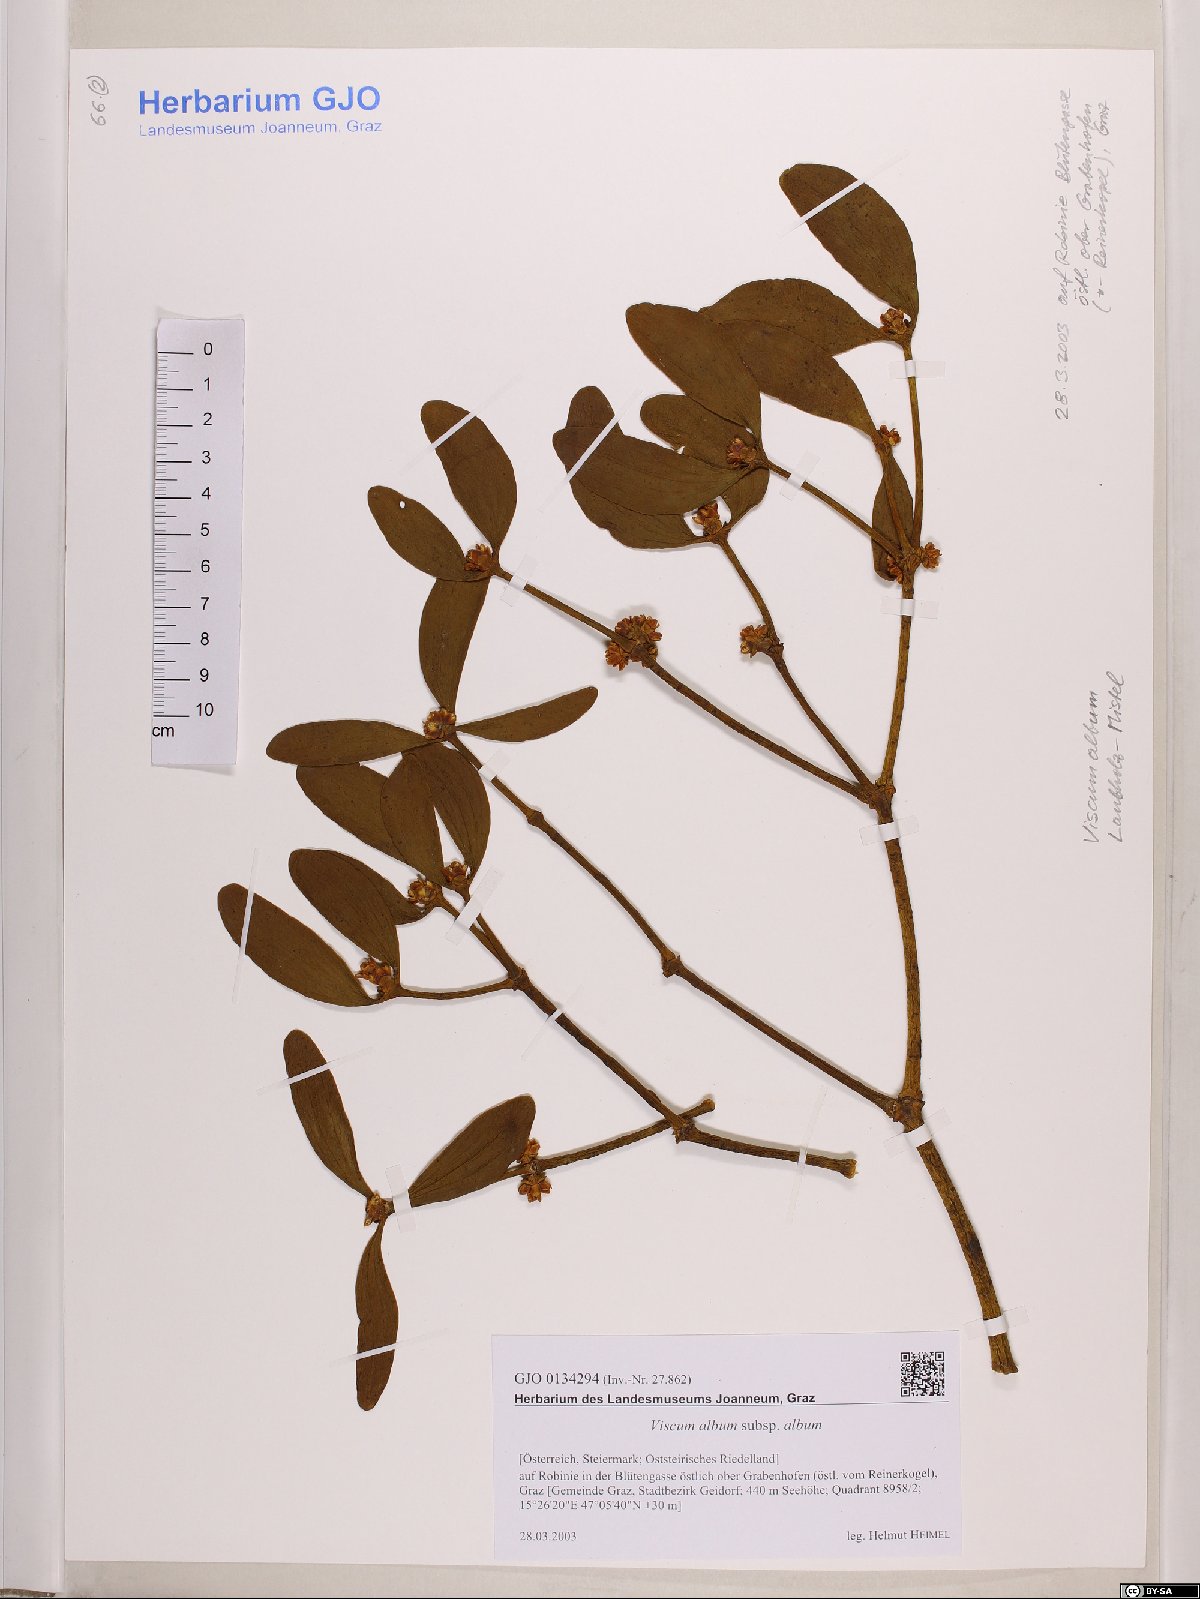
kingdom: Plantae
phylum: Tracheophyta
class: Magnoliopsida
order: Santalales
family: Viscaceae
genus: Viscum
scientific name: Viscum album
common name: Mistletoe
